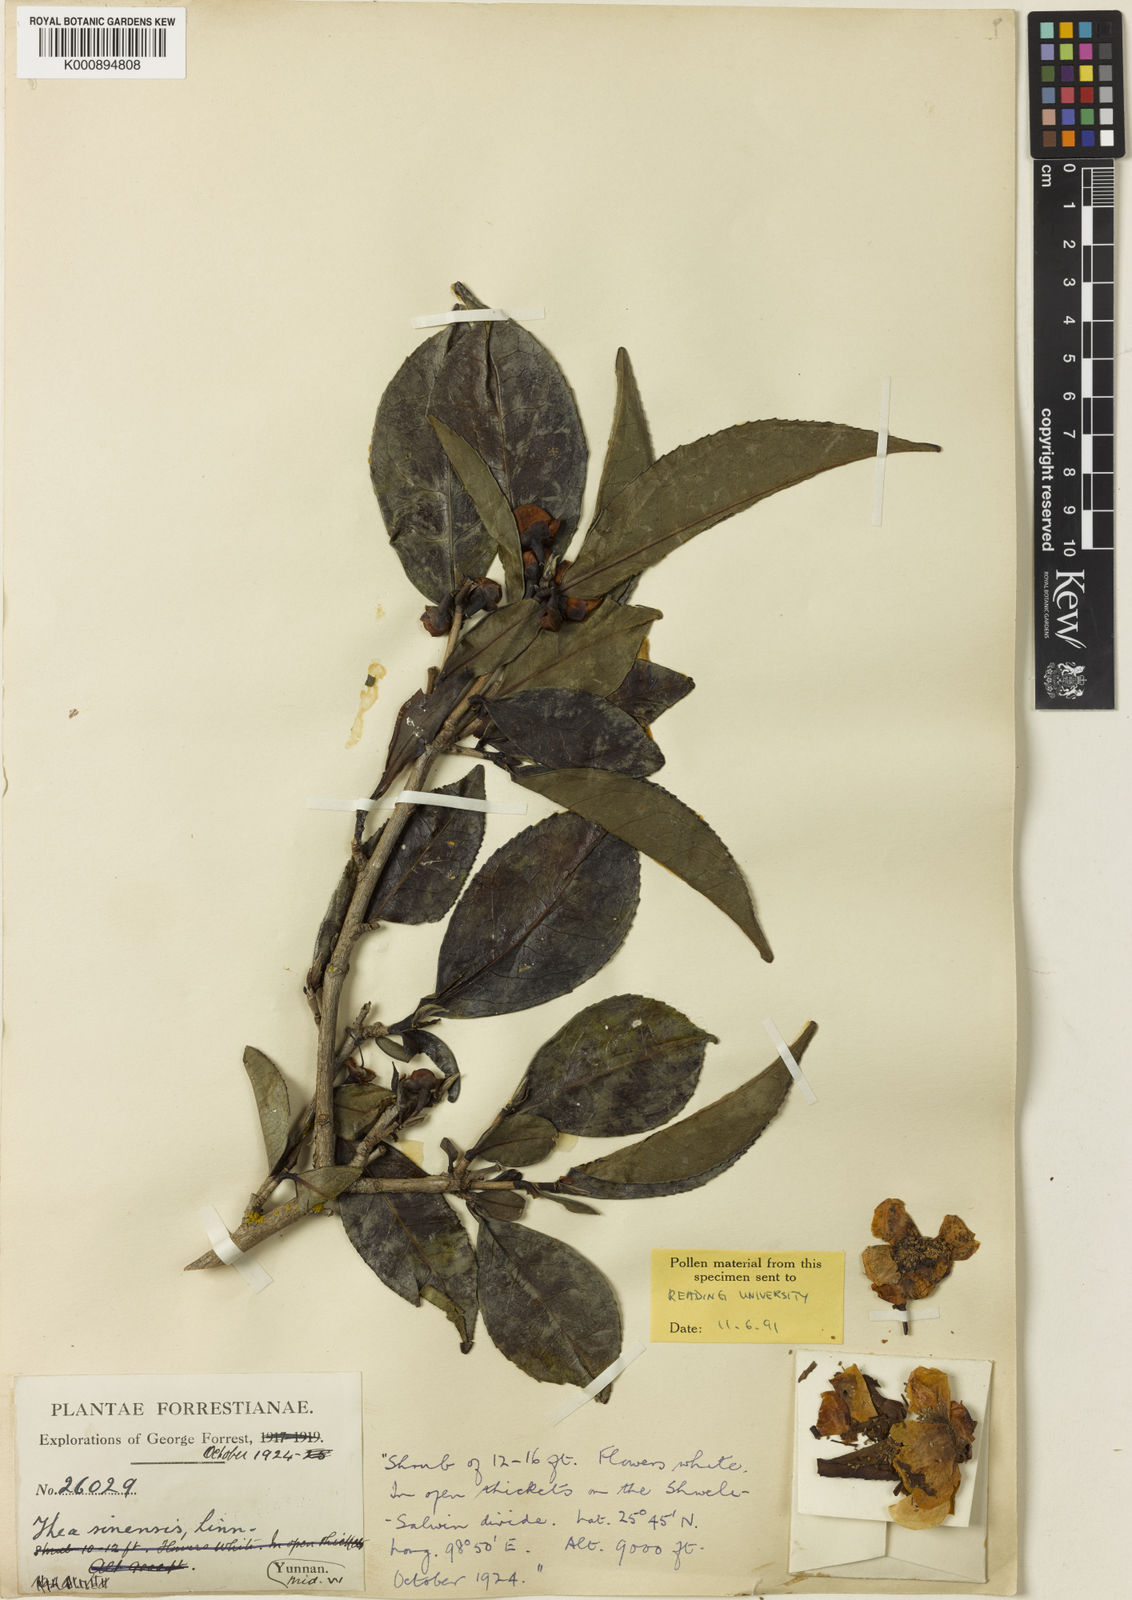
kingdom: Plantae
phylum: Tracheophyta
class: Magnoliopsida
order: Ericales
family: Theaceae
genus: Camellia
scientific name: Camellia sinensis
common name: Tea
